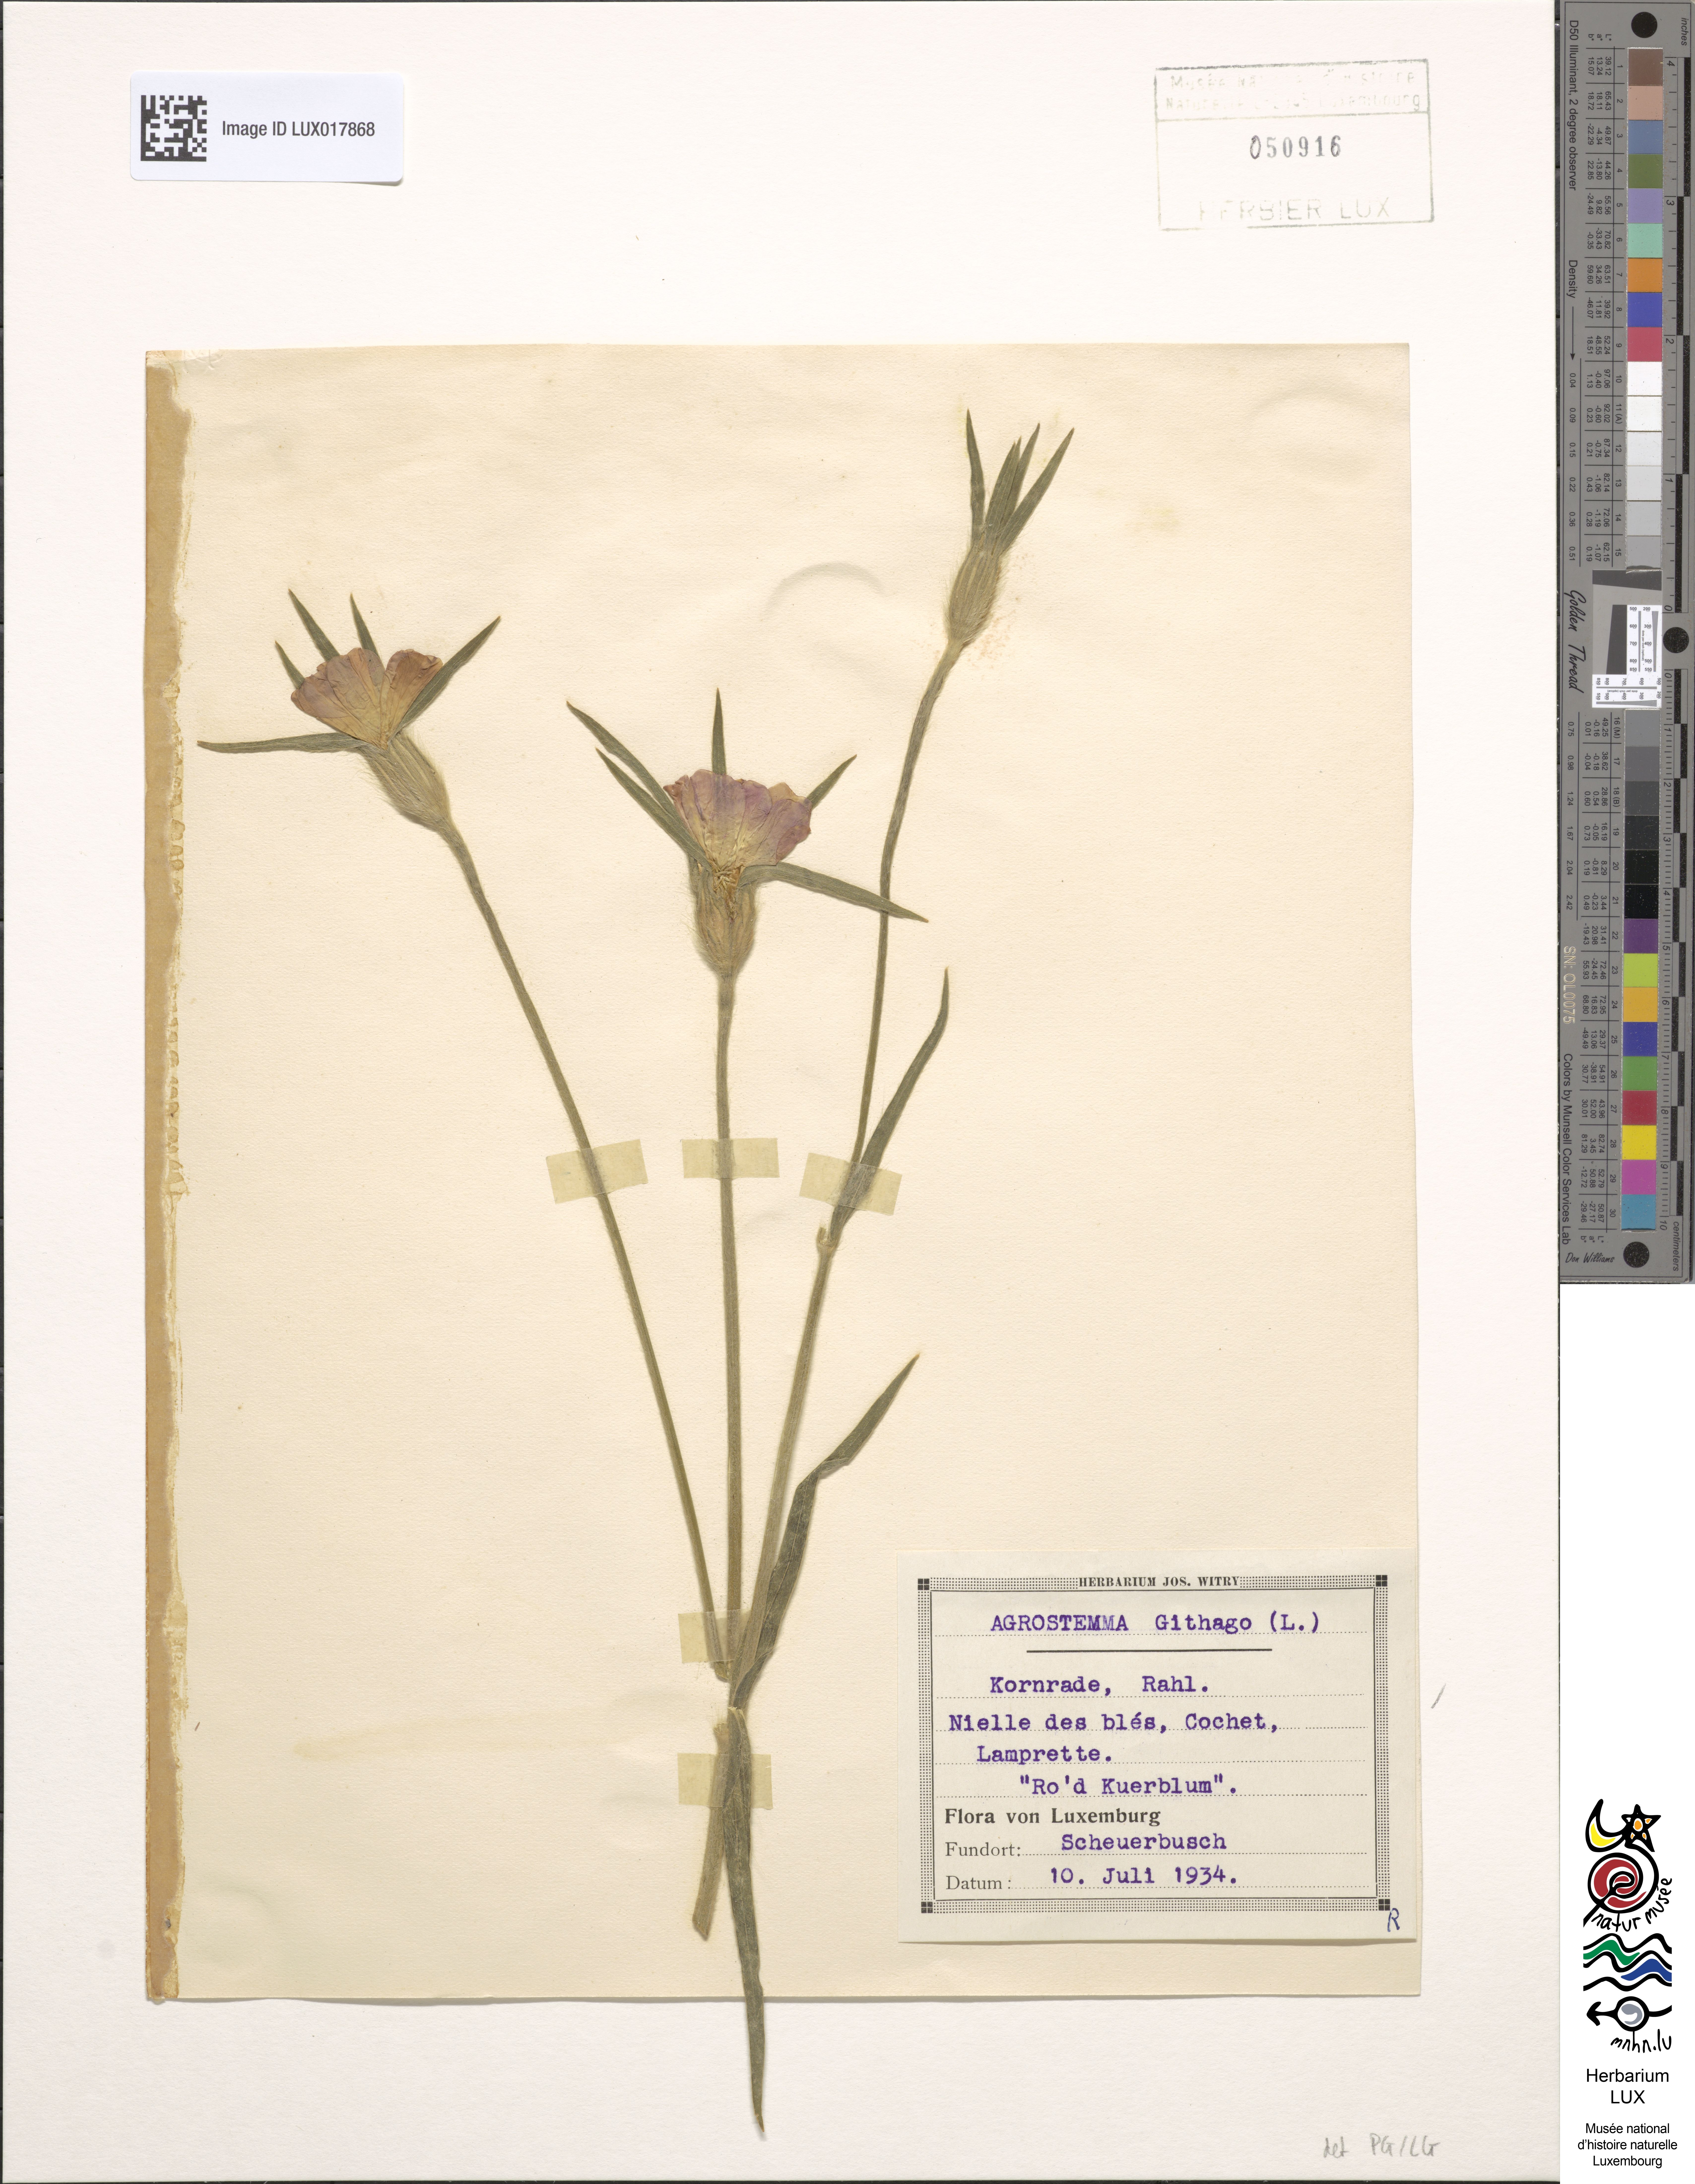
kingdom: Plantae
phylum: Tracheophyta
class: Magnoliopsida
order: Caryophyllales
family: Caryophyllaceae
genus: Agrostemma
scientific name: Agrostemma githago
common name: Common corncockle
